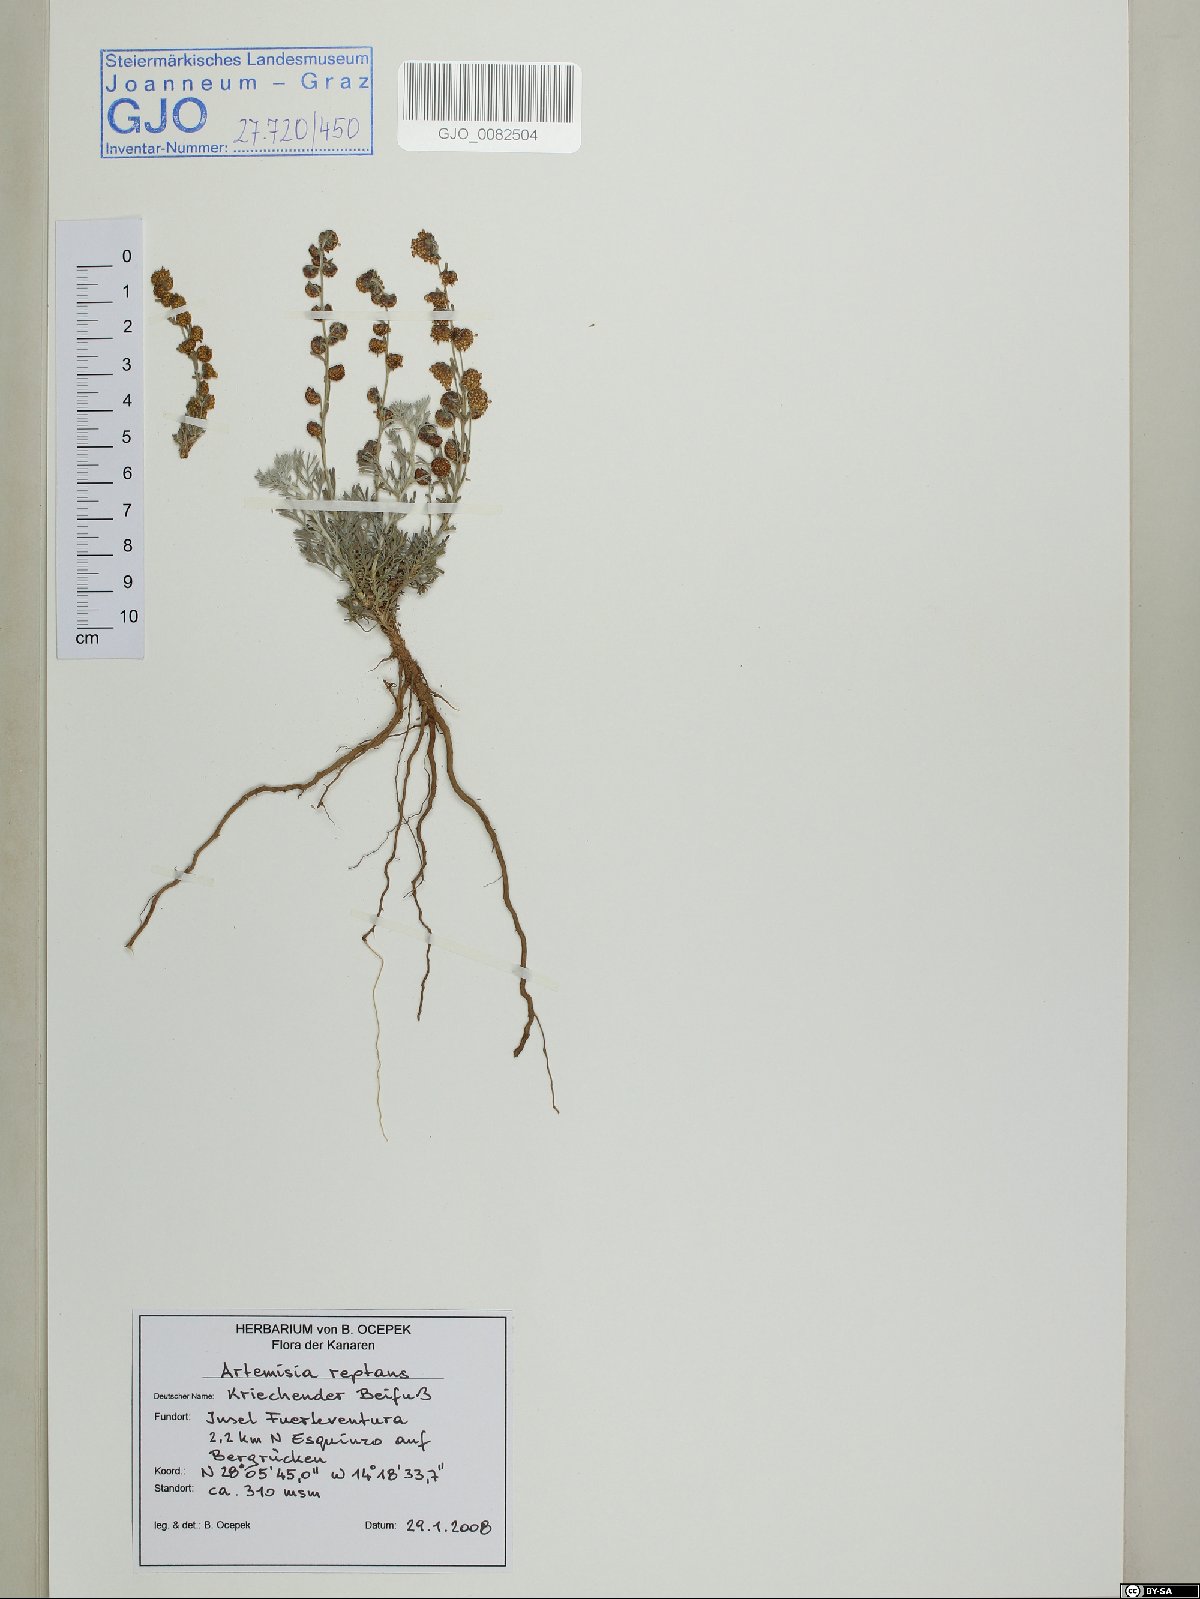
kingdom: Plantae
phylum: Tracheophyta
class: Magnoliopsida
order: Asterales
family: Asteraceae
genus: Artemisia
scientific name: Artemisia reptans
